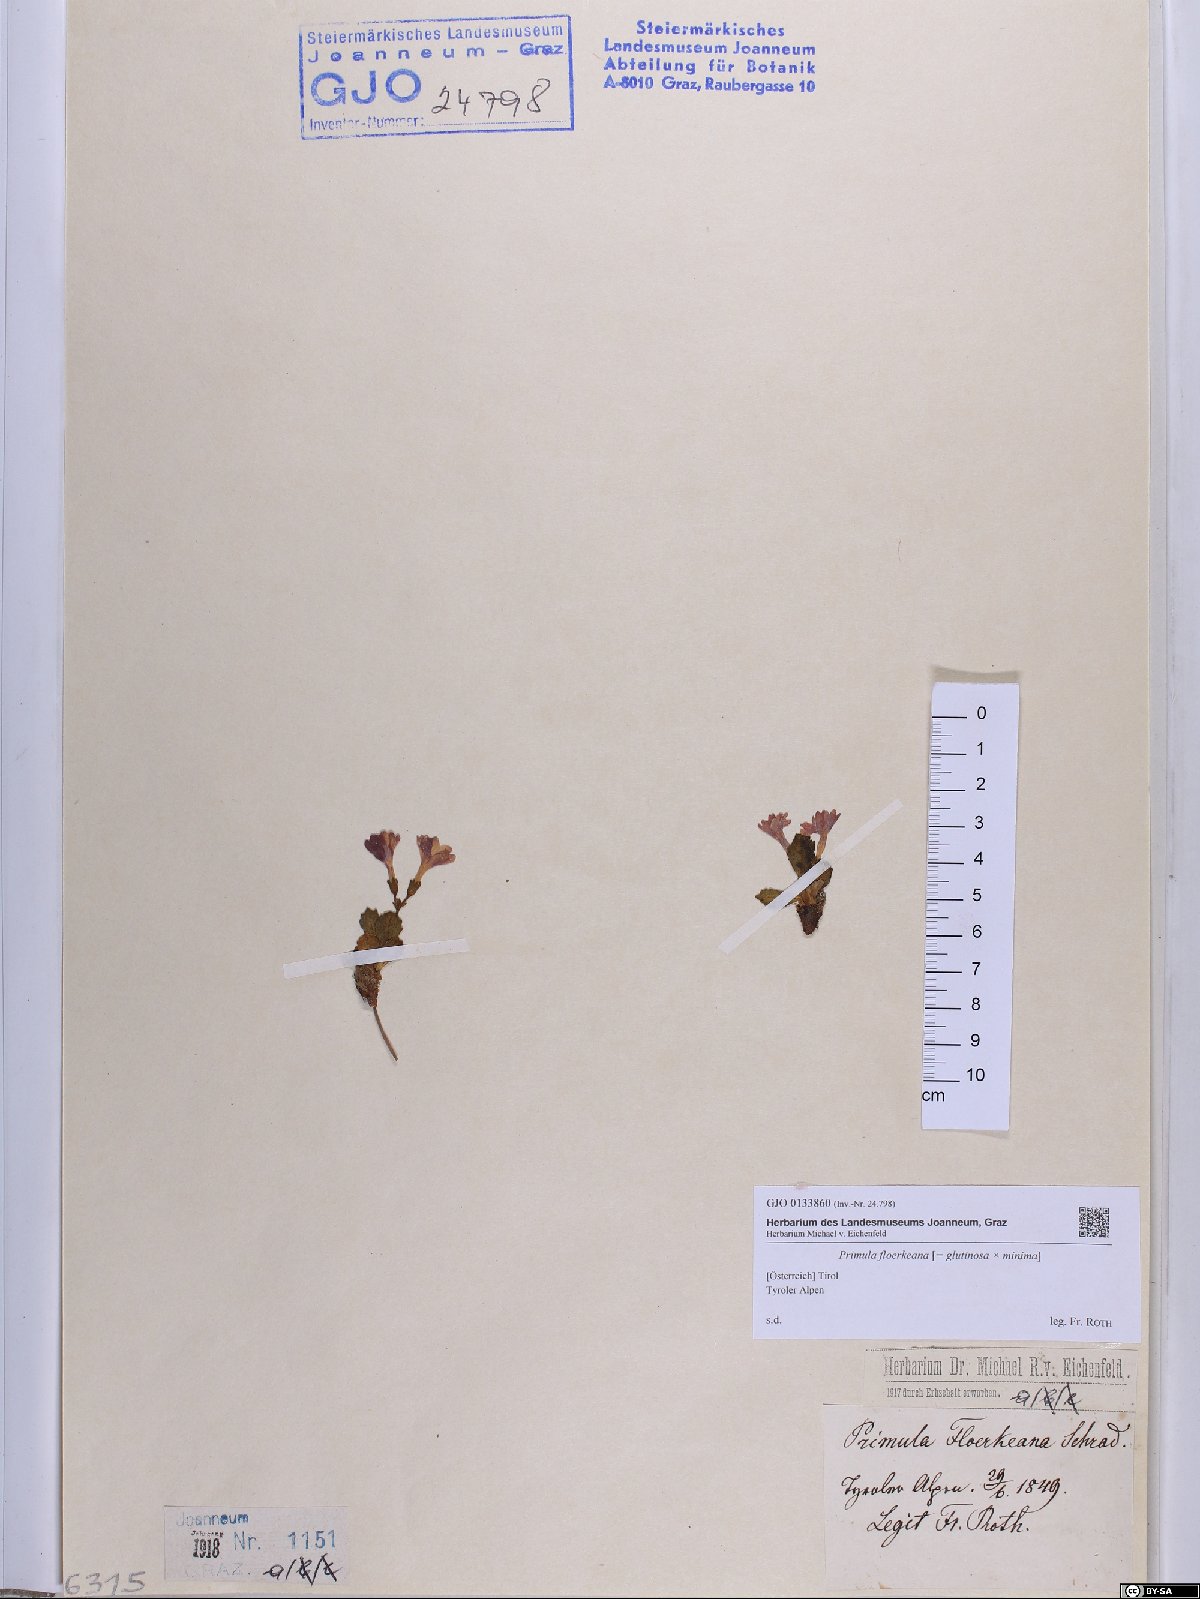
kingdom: Plantae
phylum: Tracheophyta
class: Magnoliopsida
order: Ericales
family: Primulaceae
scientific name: Primulaceae
